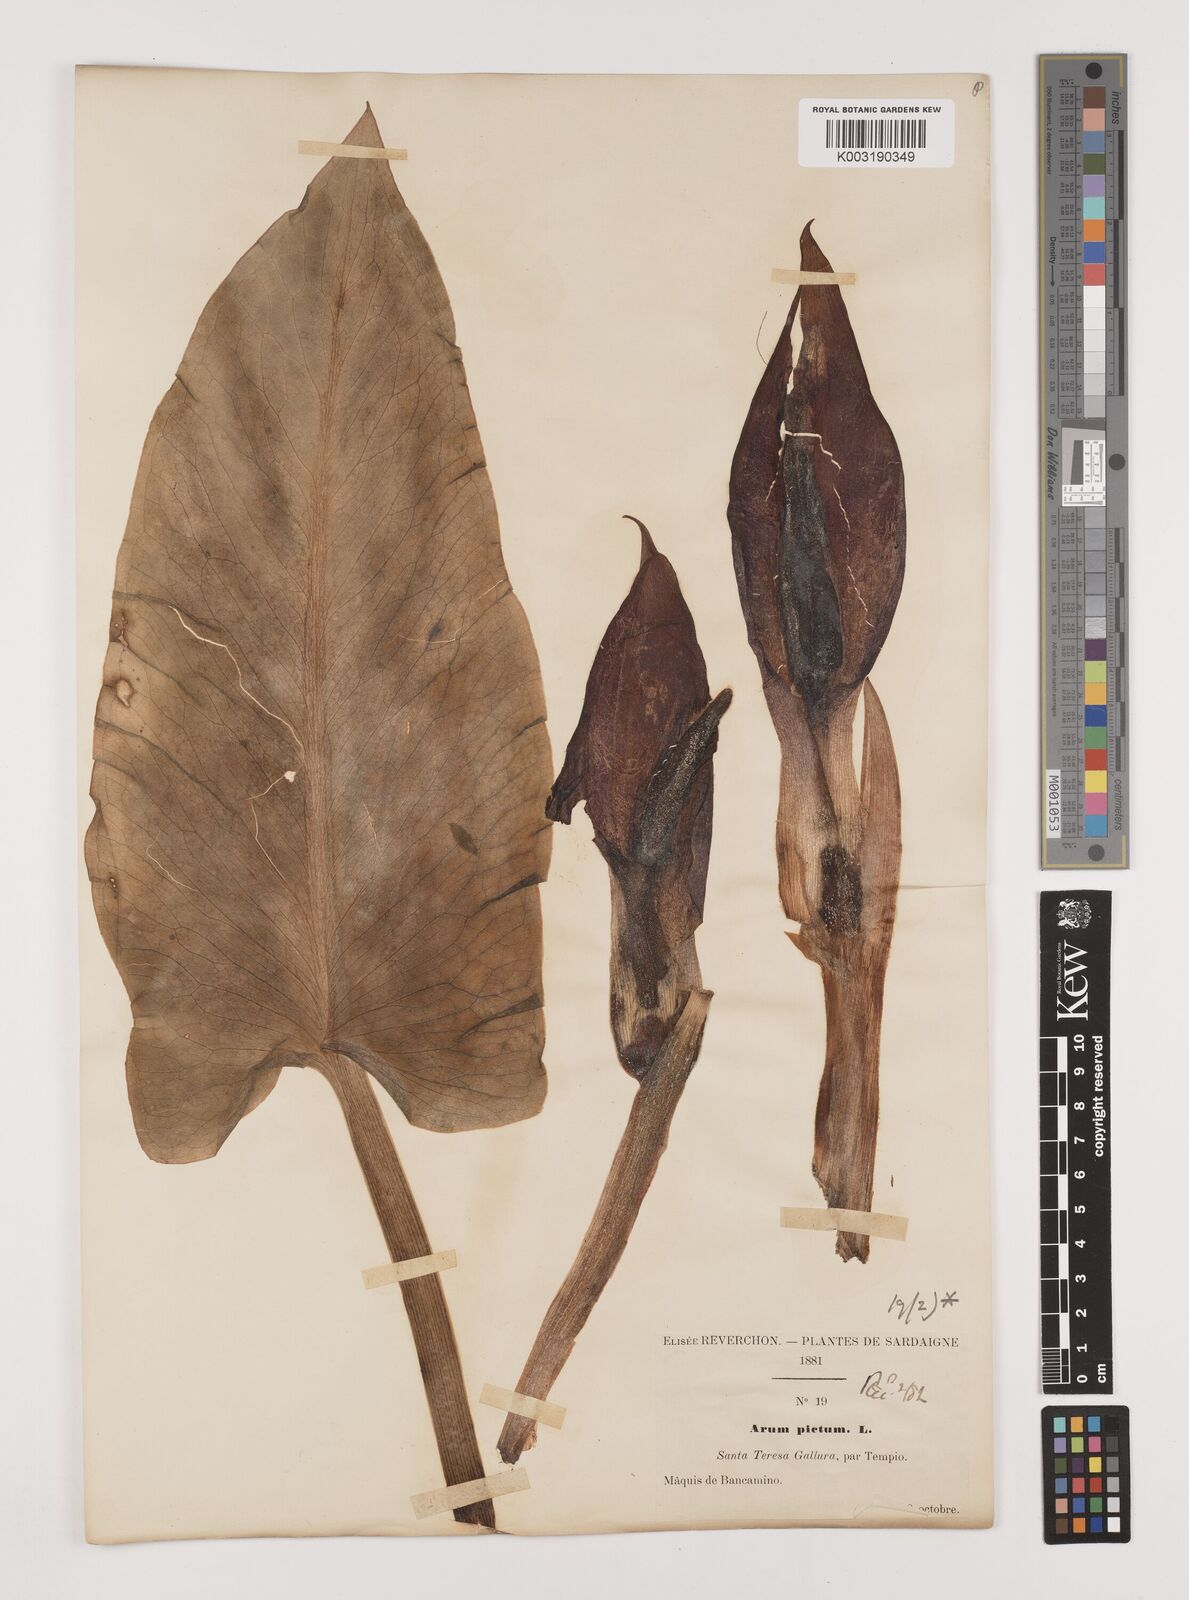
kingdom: Plantae
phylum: Tracheophyta
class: Liliopsida
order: Alismatales
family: Araceae
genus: Arum
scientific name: Arum pictum
